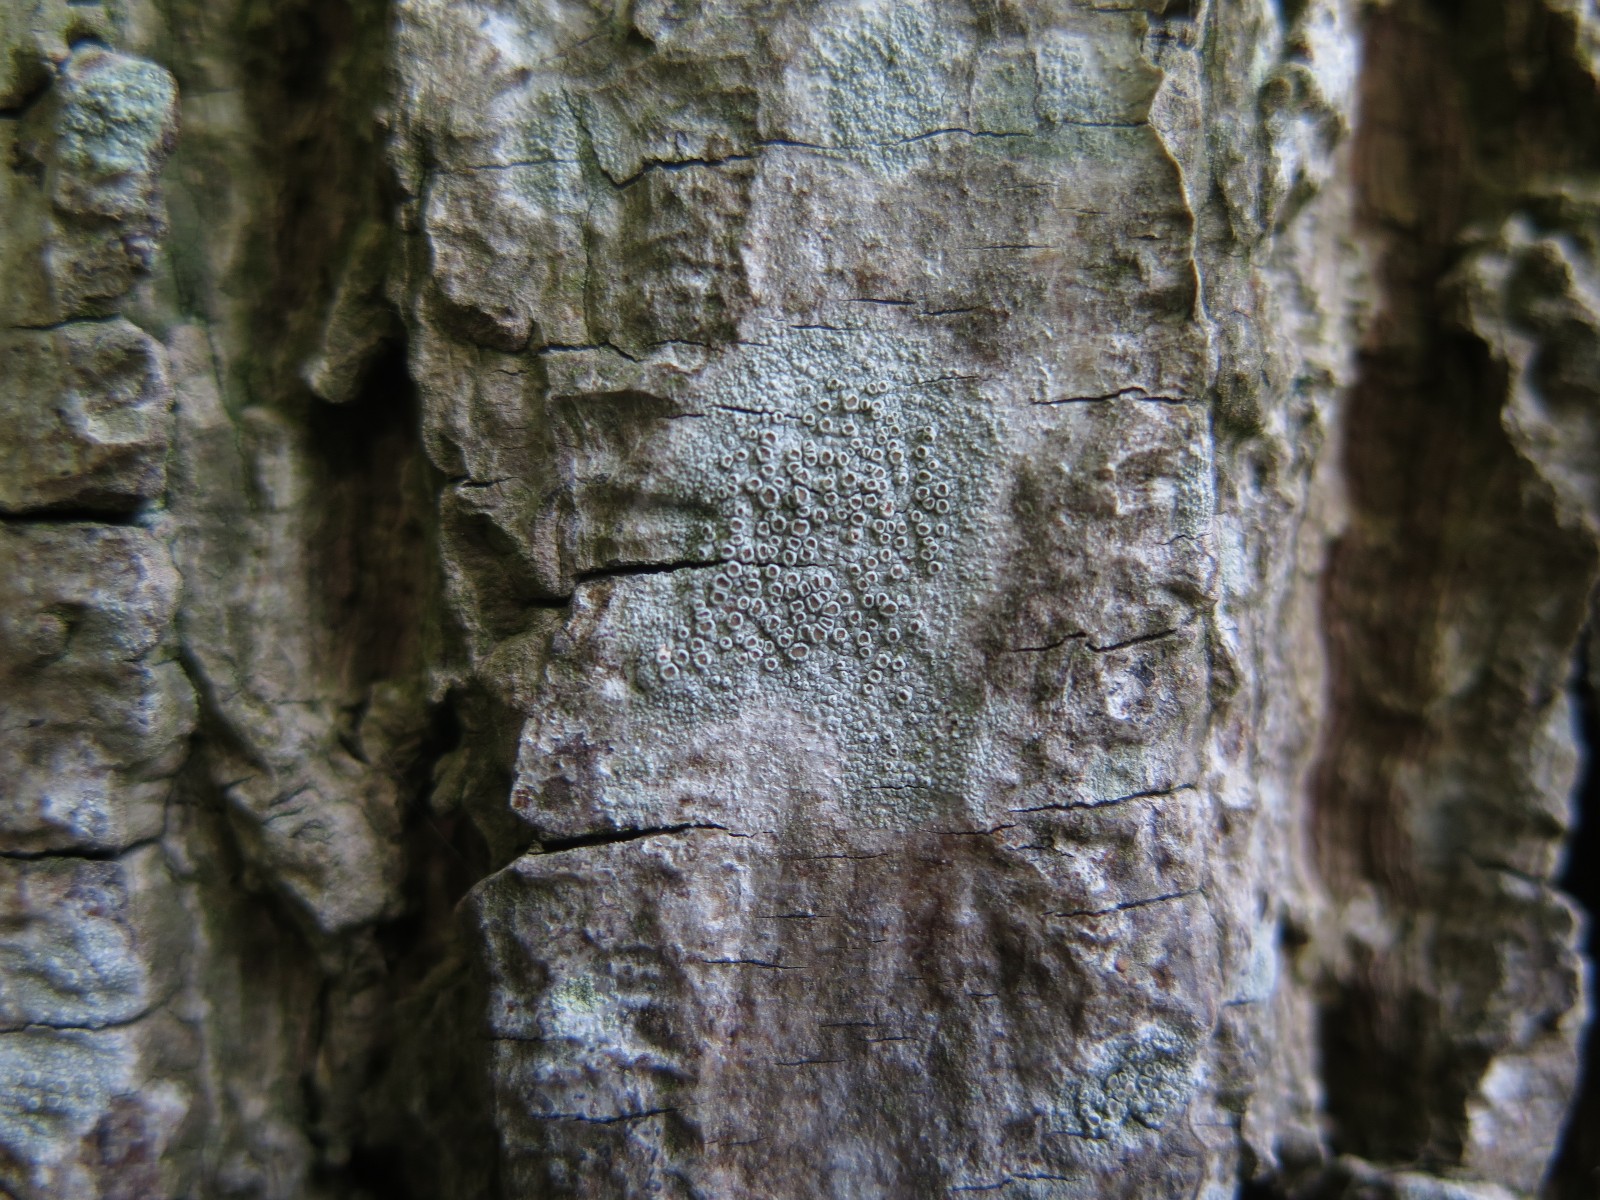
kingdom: Fungi
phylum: Ascomycota
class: Lecanoromycetes
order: Lecanorales
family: Lecanoraceae
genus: Lecanora
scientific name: Lecanora chlarotera
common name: brun kantskivelav
